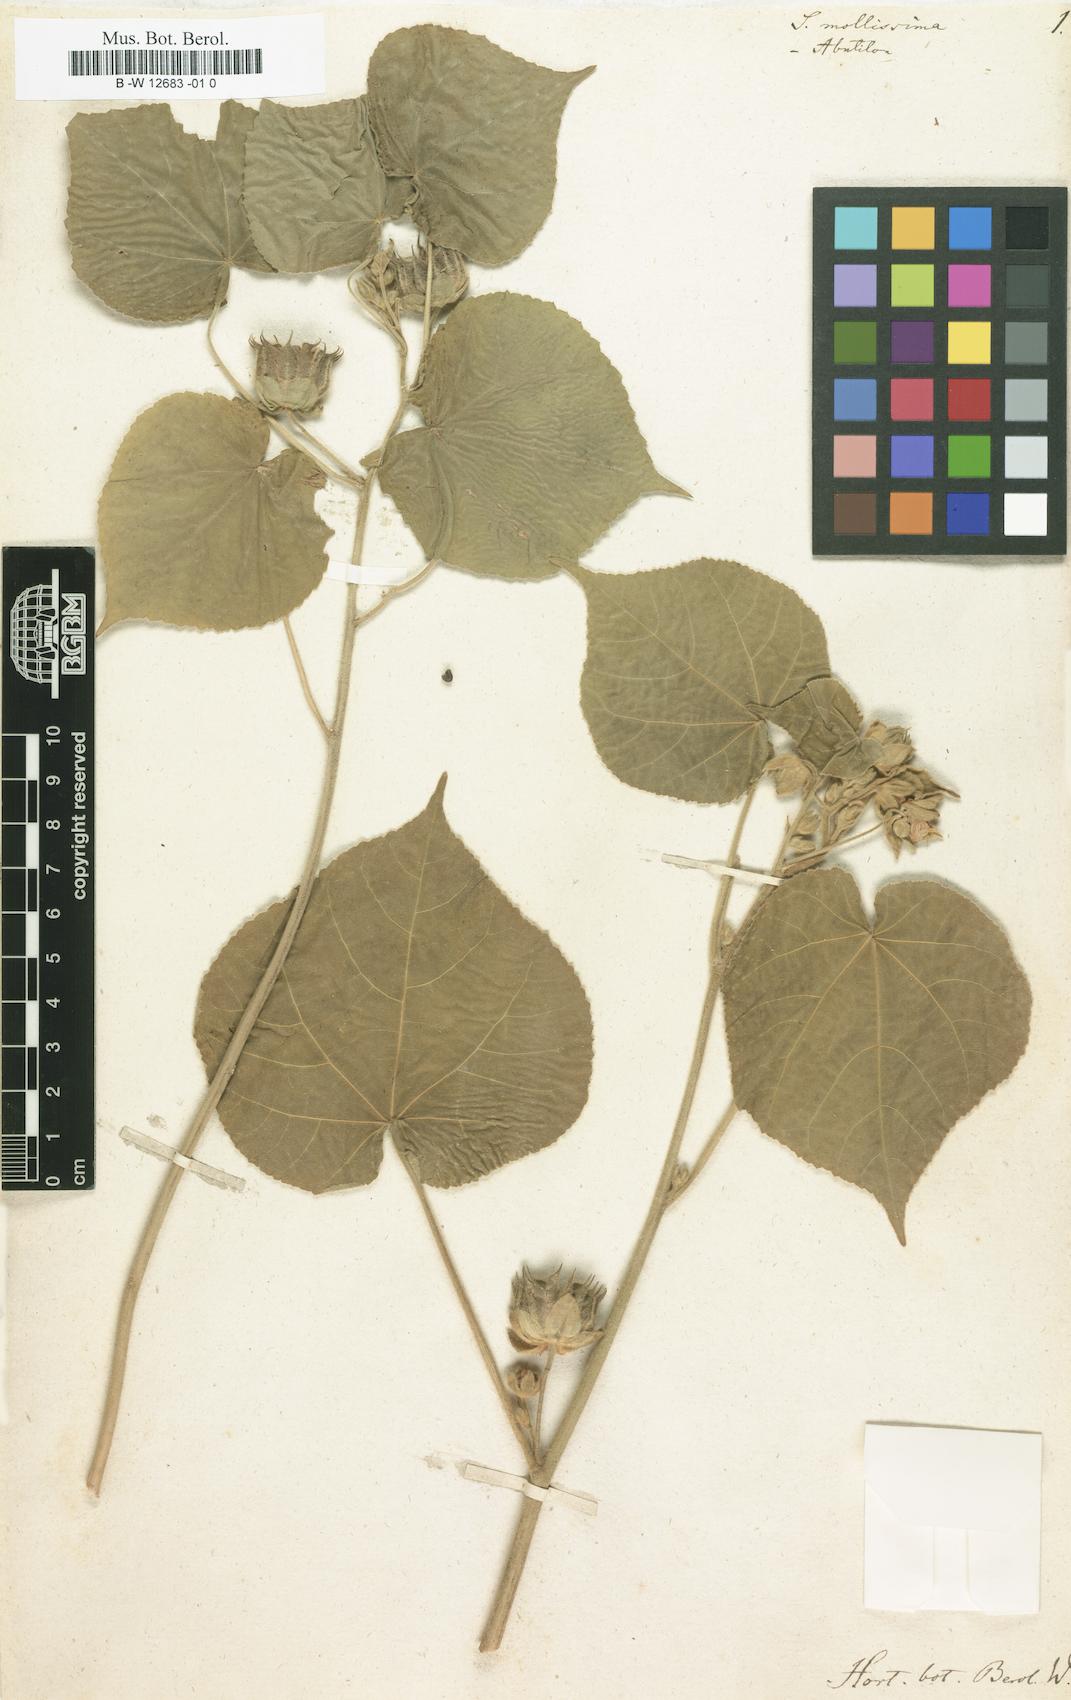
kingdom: Plantae
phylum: Tracheophyta
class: Magnoliopsida
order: Malvales
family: Malvaceae
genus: Abutilon
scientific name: Abutilon mollissimum
